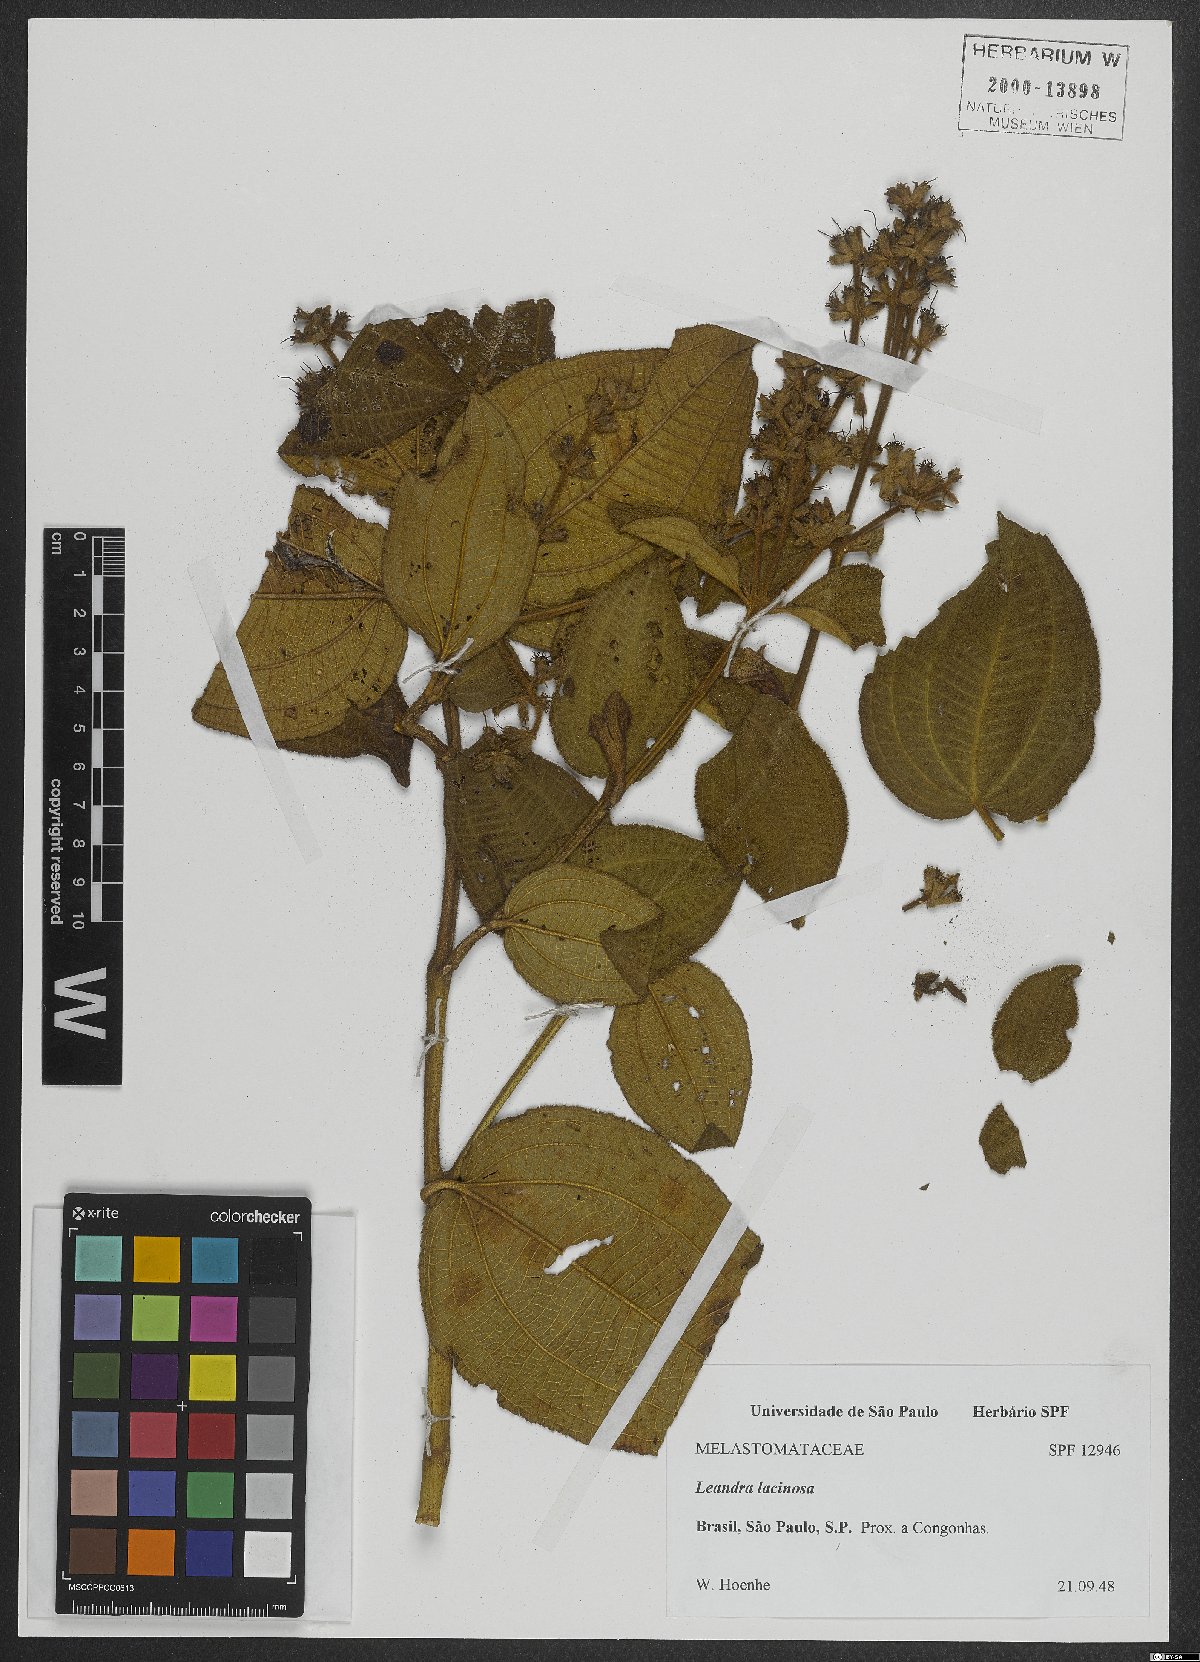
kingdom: Plantae
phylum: Tracheophyta
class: Magnoliopsida
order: Myrtales
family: Melastomataceae
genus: Miconia
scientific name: Miconia lacunosa
